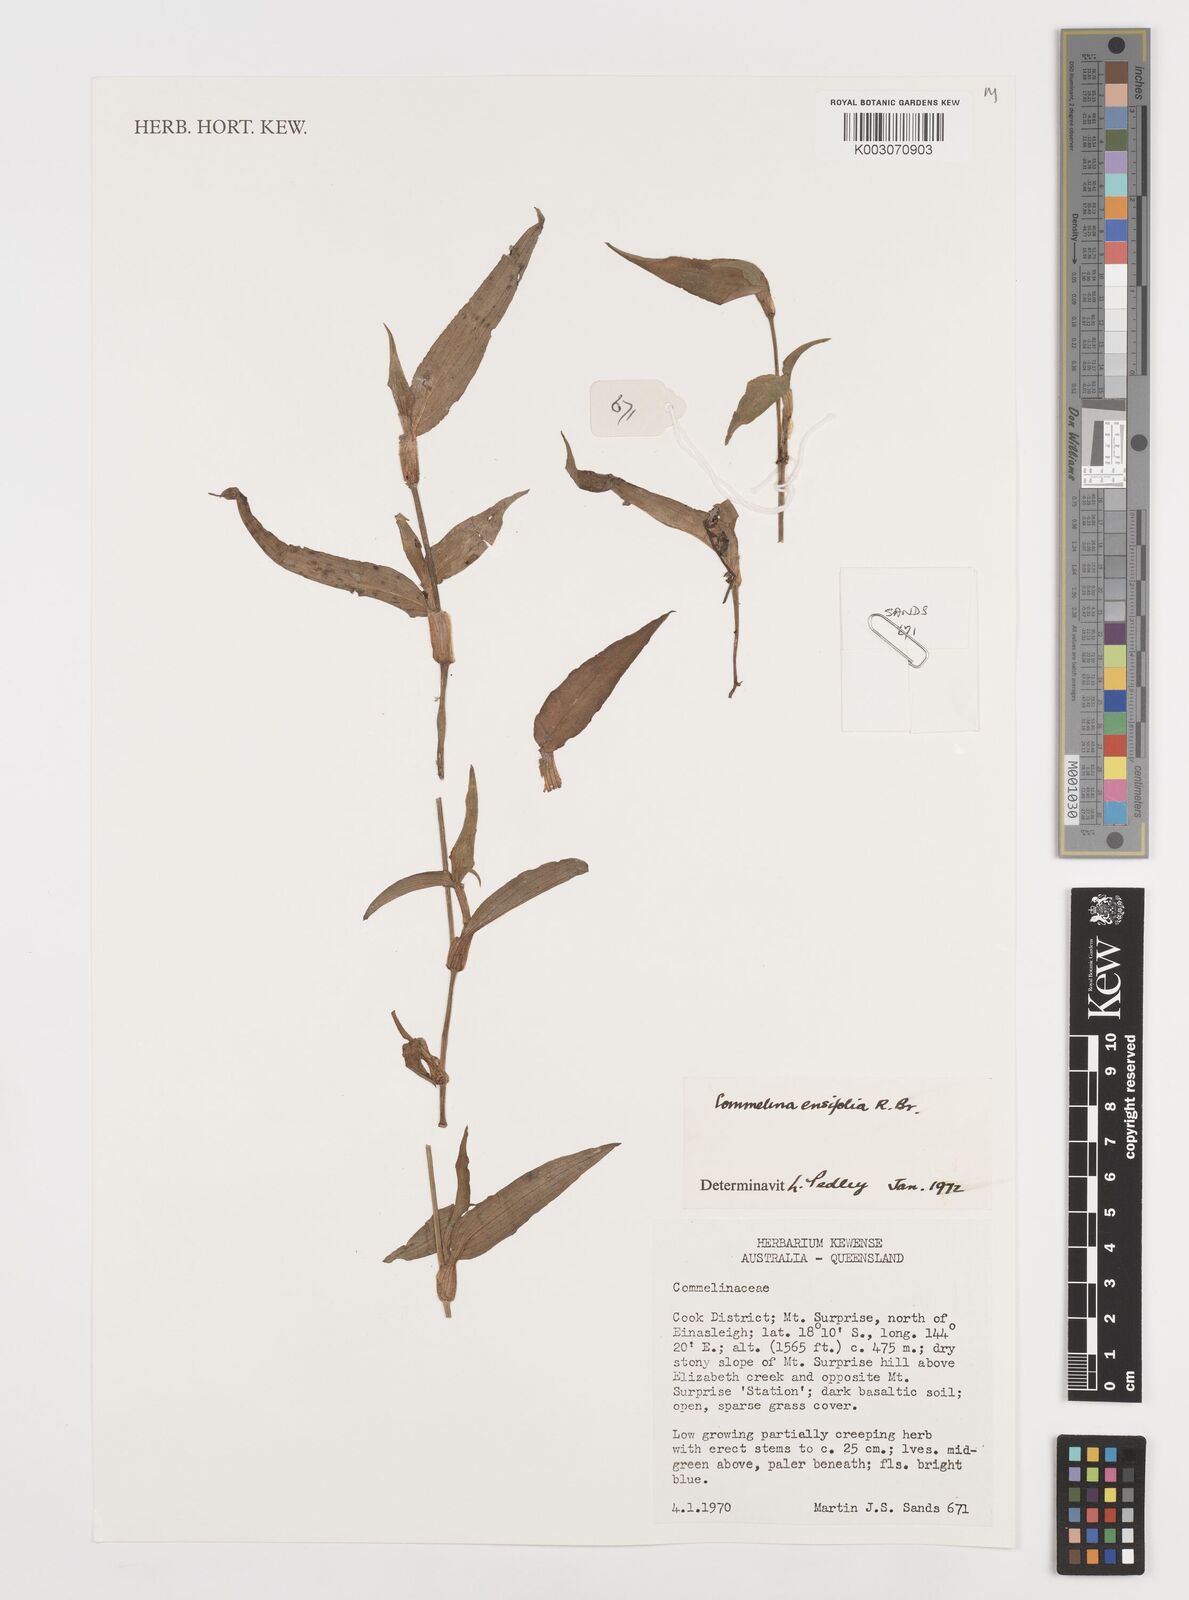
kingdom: Plantae
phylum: Tracheophyta
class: Liliopsida
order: Commelinales
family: Commelinaceae
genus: Commelina
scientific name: Commelina ensifolia
